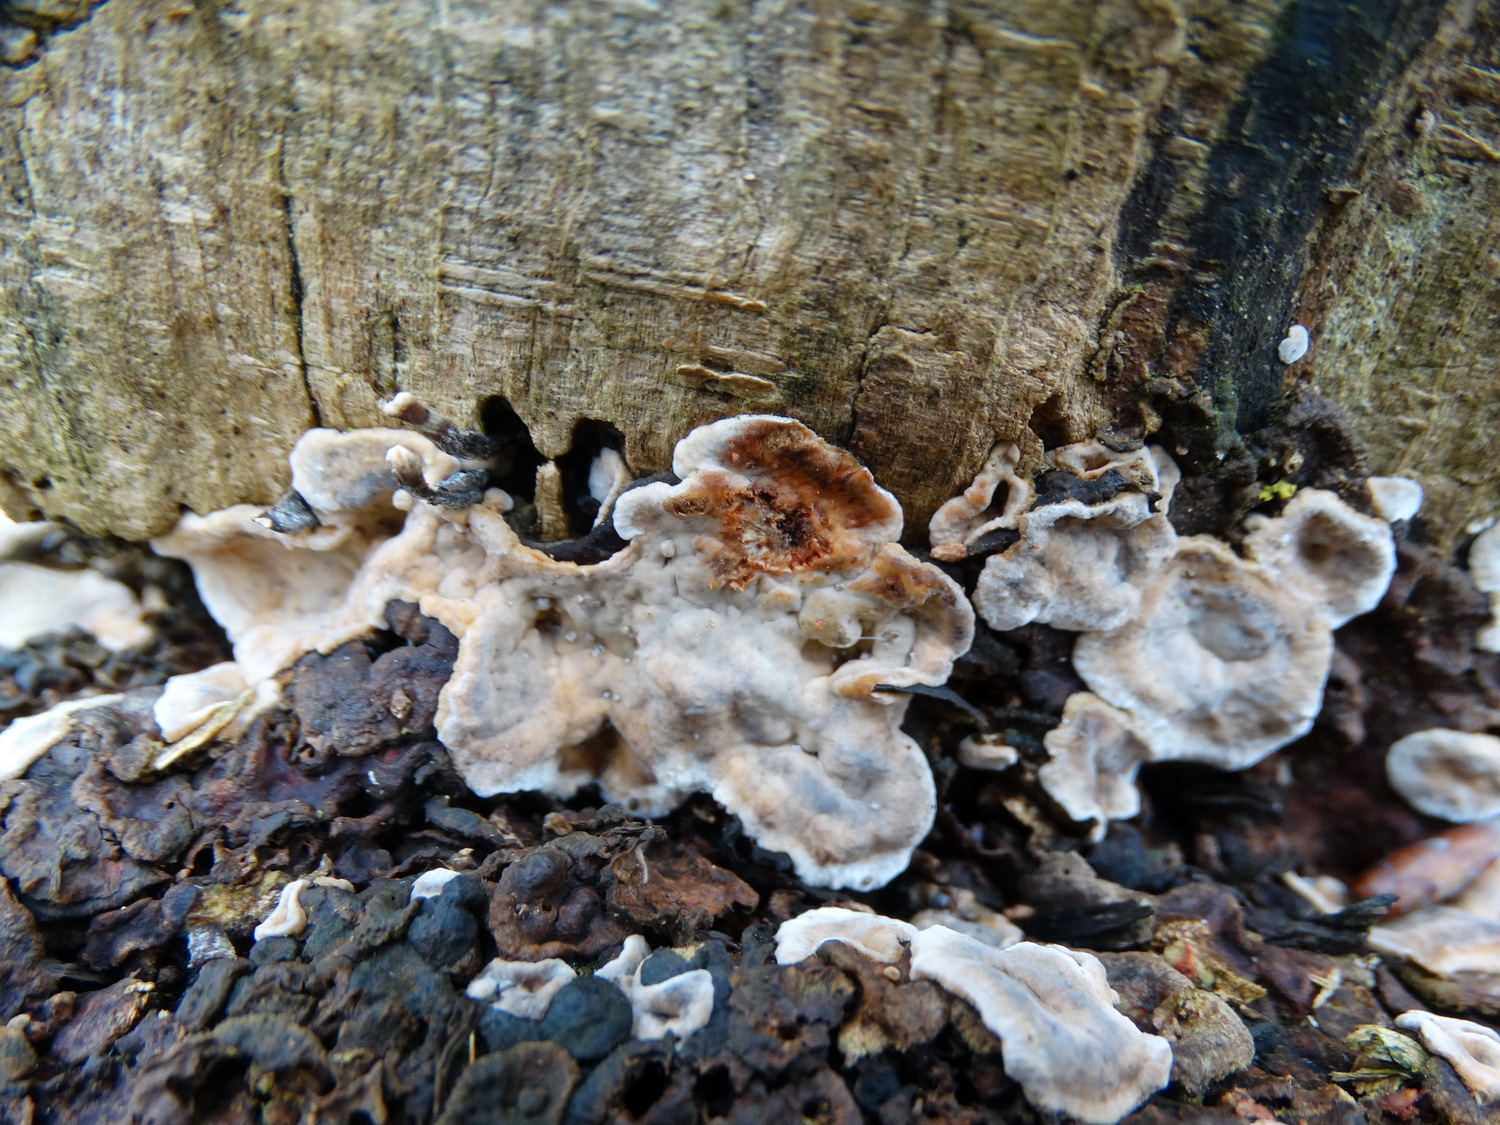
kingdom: Fungi
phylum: Basidiomycota
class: Agaricomycetes
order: Russulales
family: Stereaceae
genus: Stereum
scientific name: Stereum rugosum
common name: rynket lædersvamp
